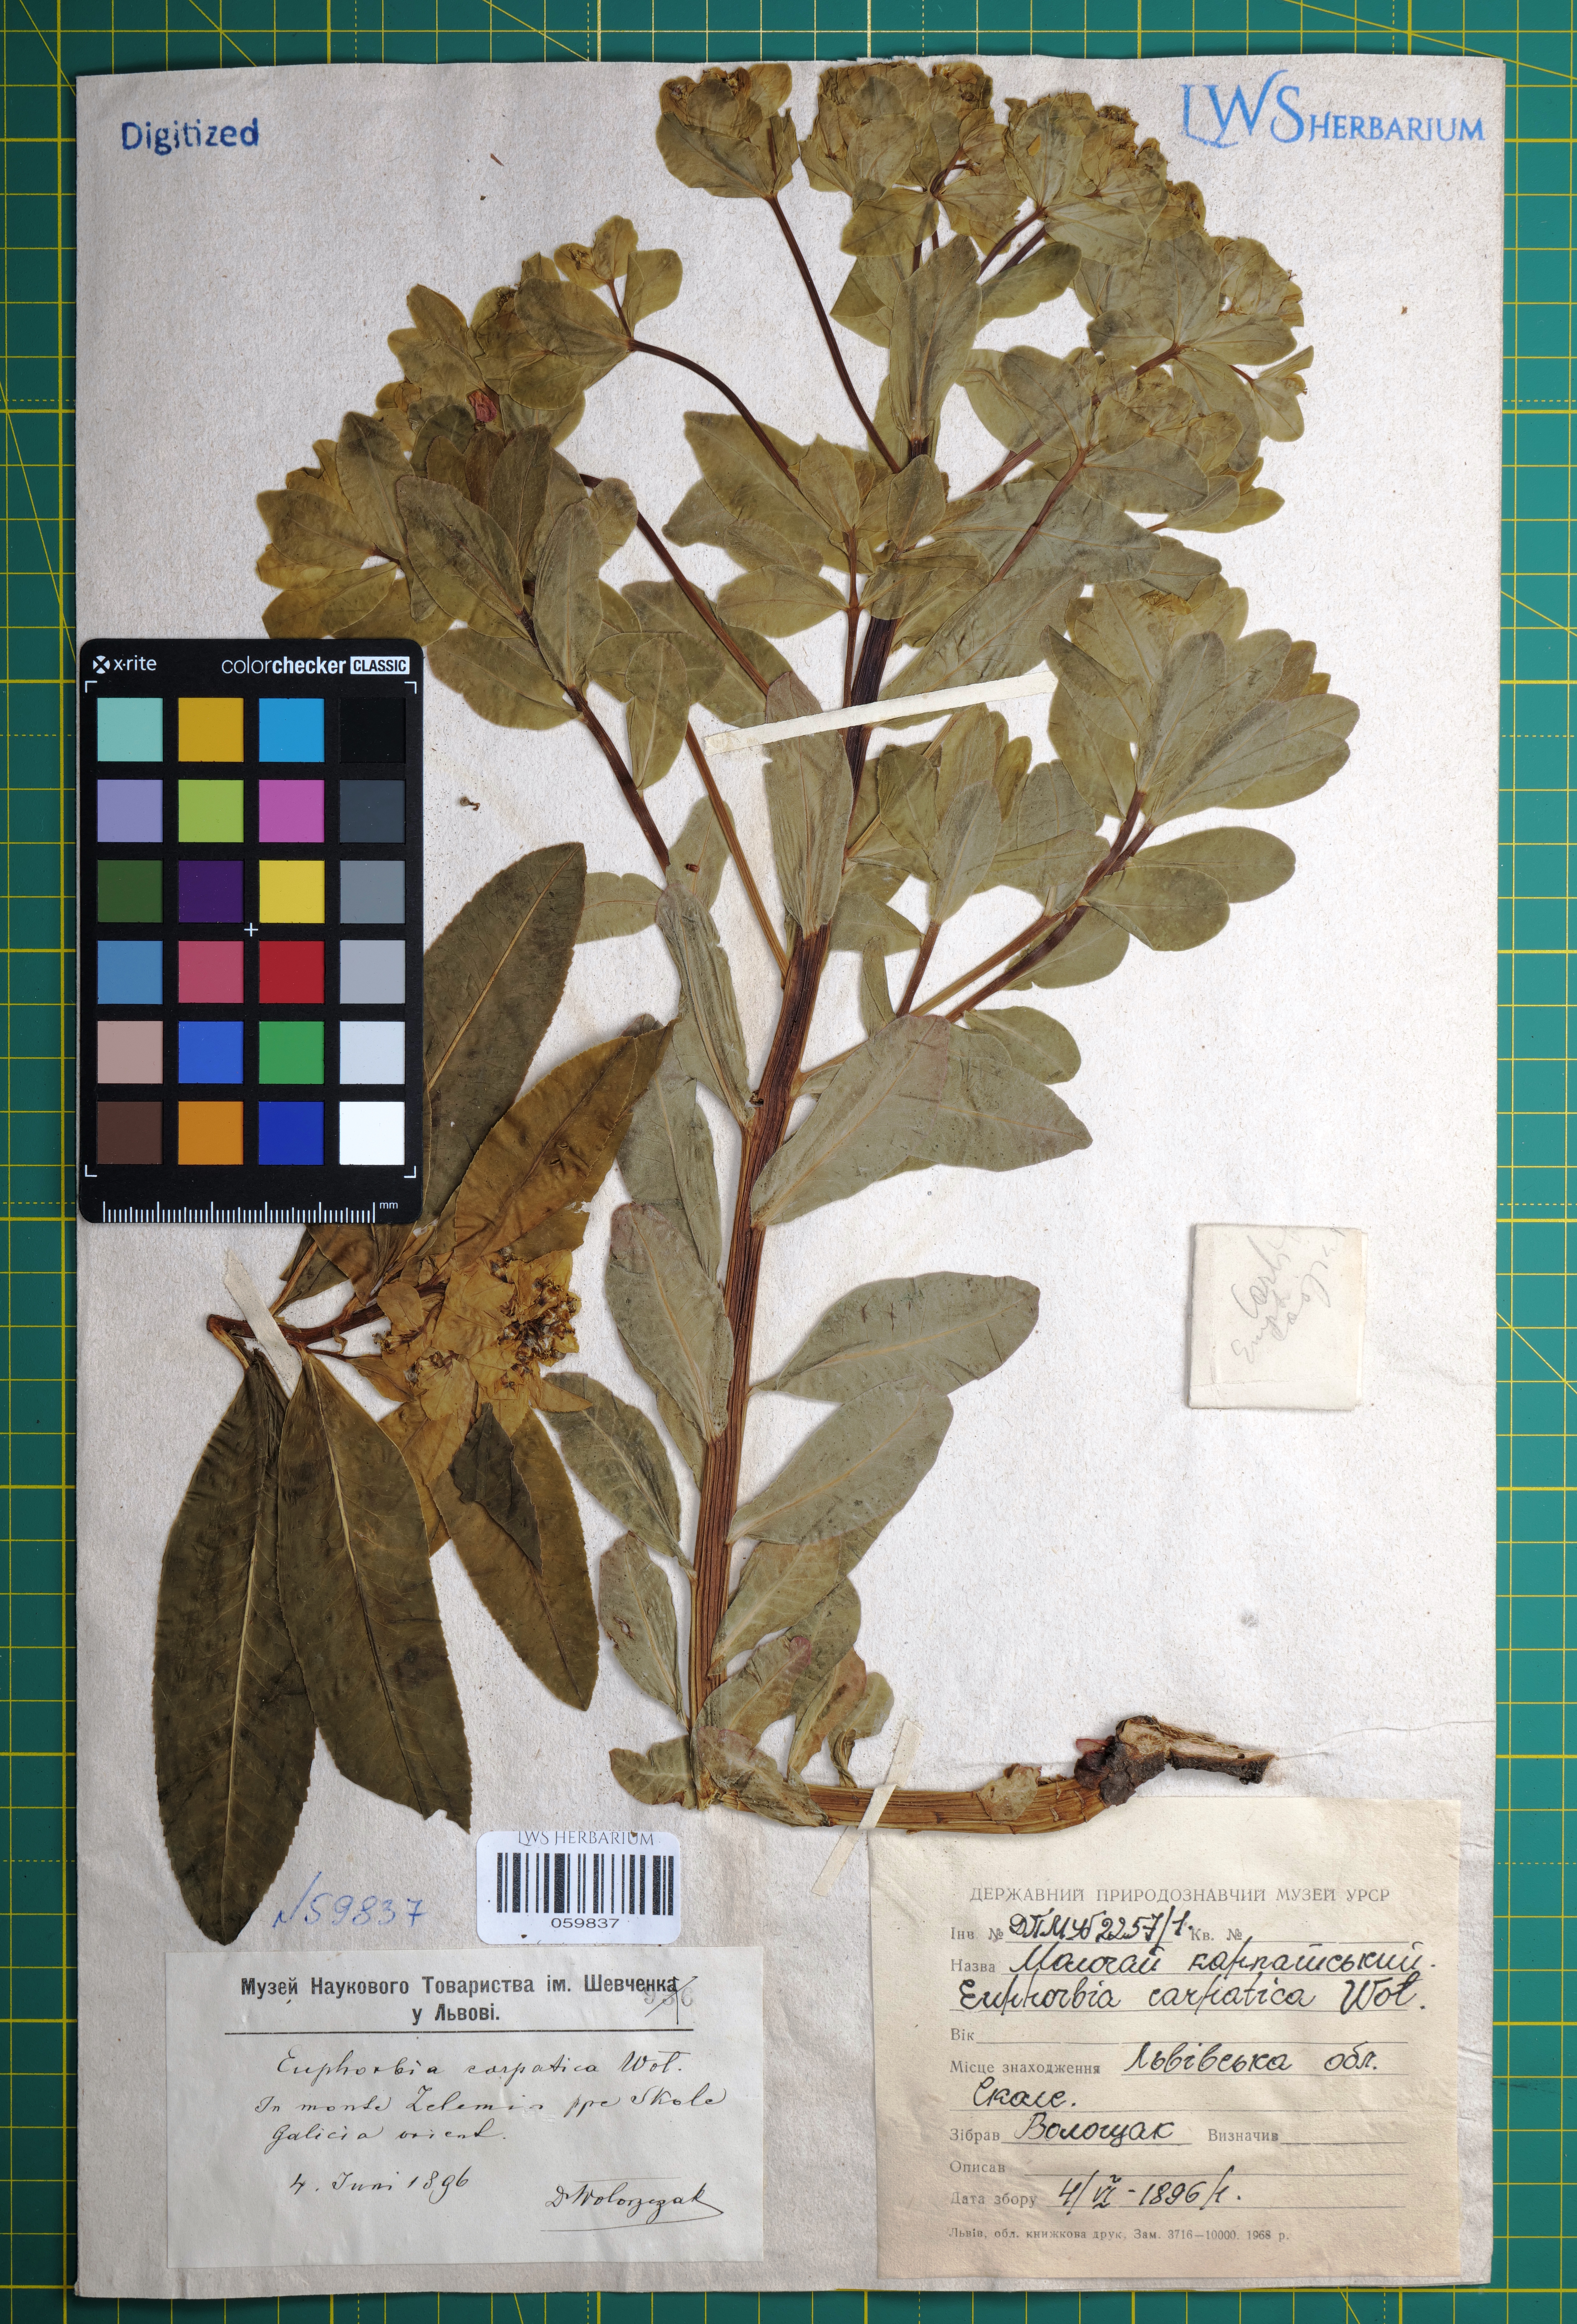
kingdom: Plantae
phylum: Tracheophyta
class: Magnoliopsida
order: Malpighiales
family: Euphorbiaceae
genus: Euphorbia
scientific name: Euphorbia carpatica
